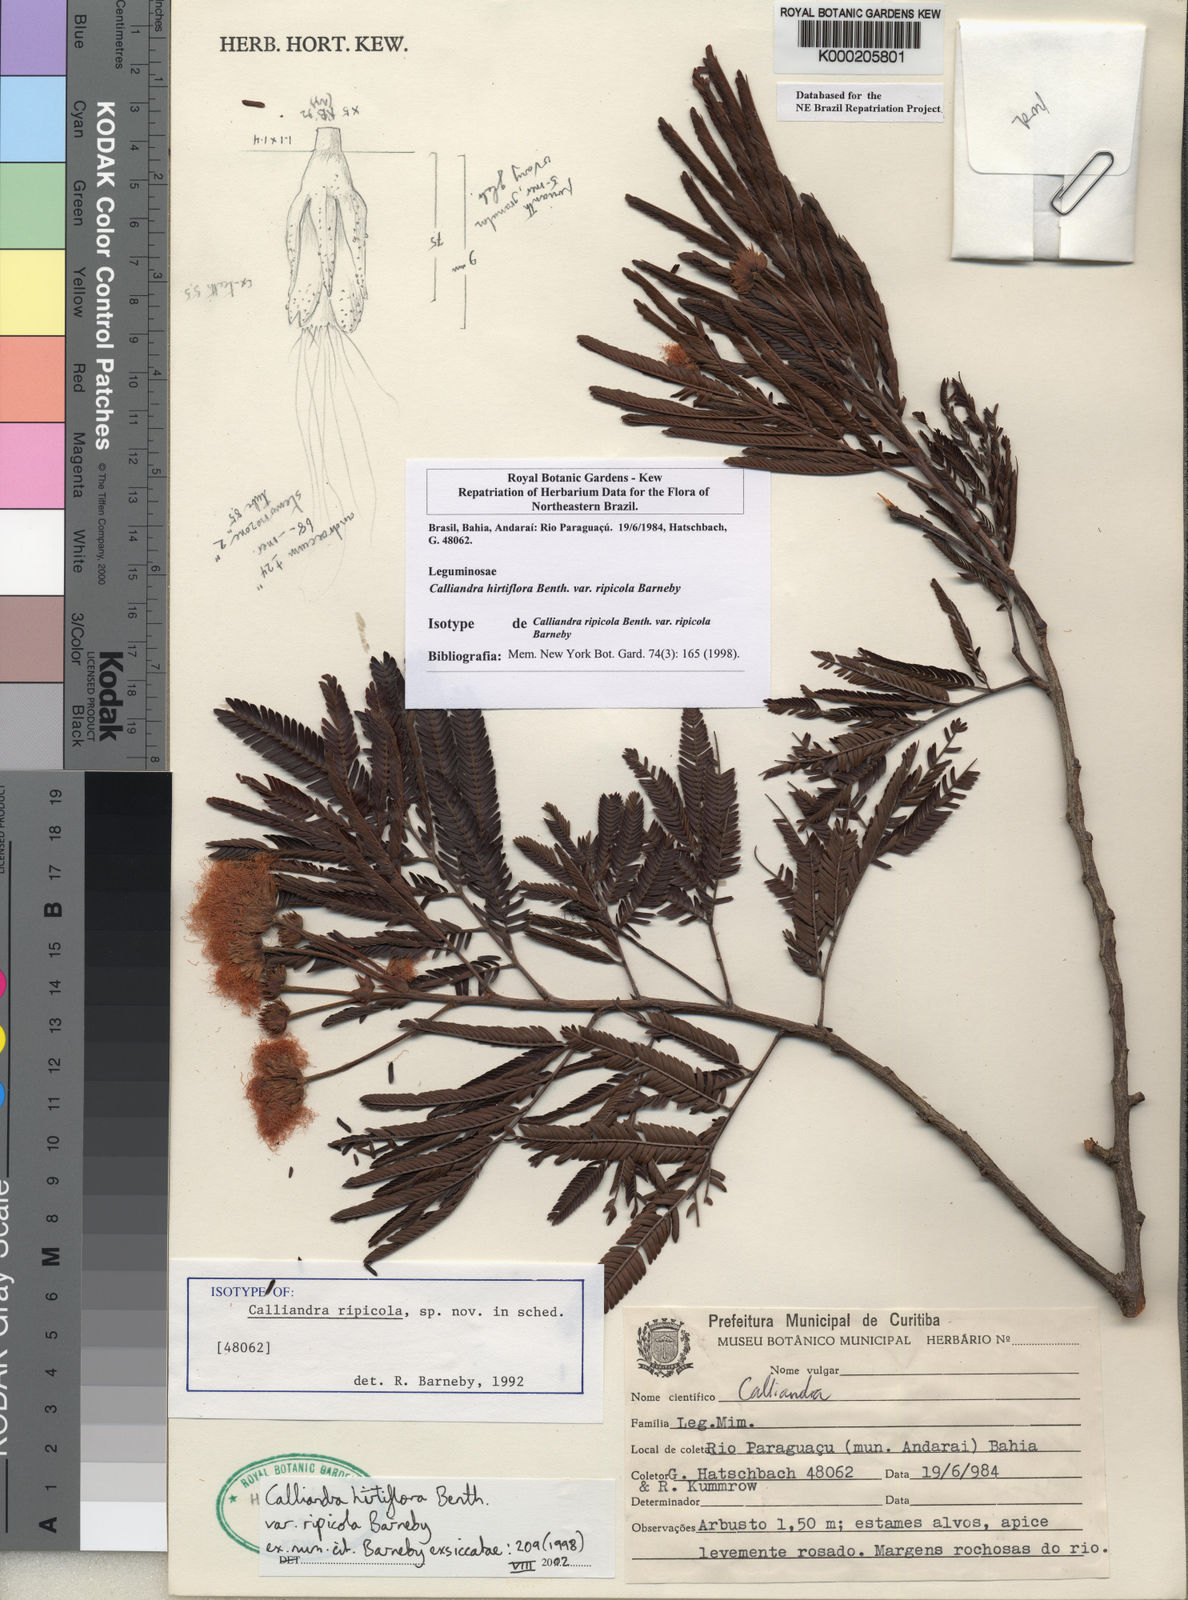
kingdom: Plantae
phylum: Tracheophyta
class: Magnoliopsida
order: Fabales
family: Fabaceae
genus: Calliandra
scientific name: Calliandra hirtiflora
